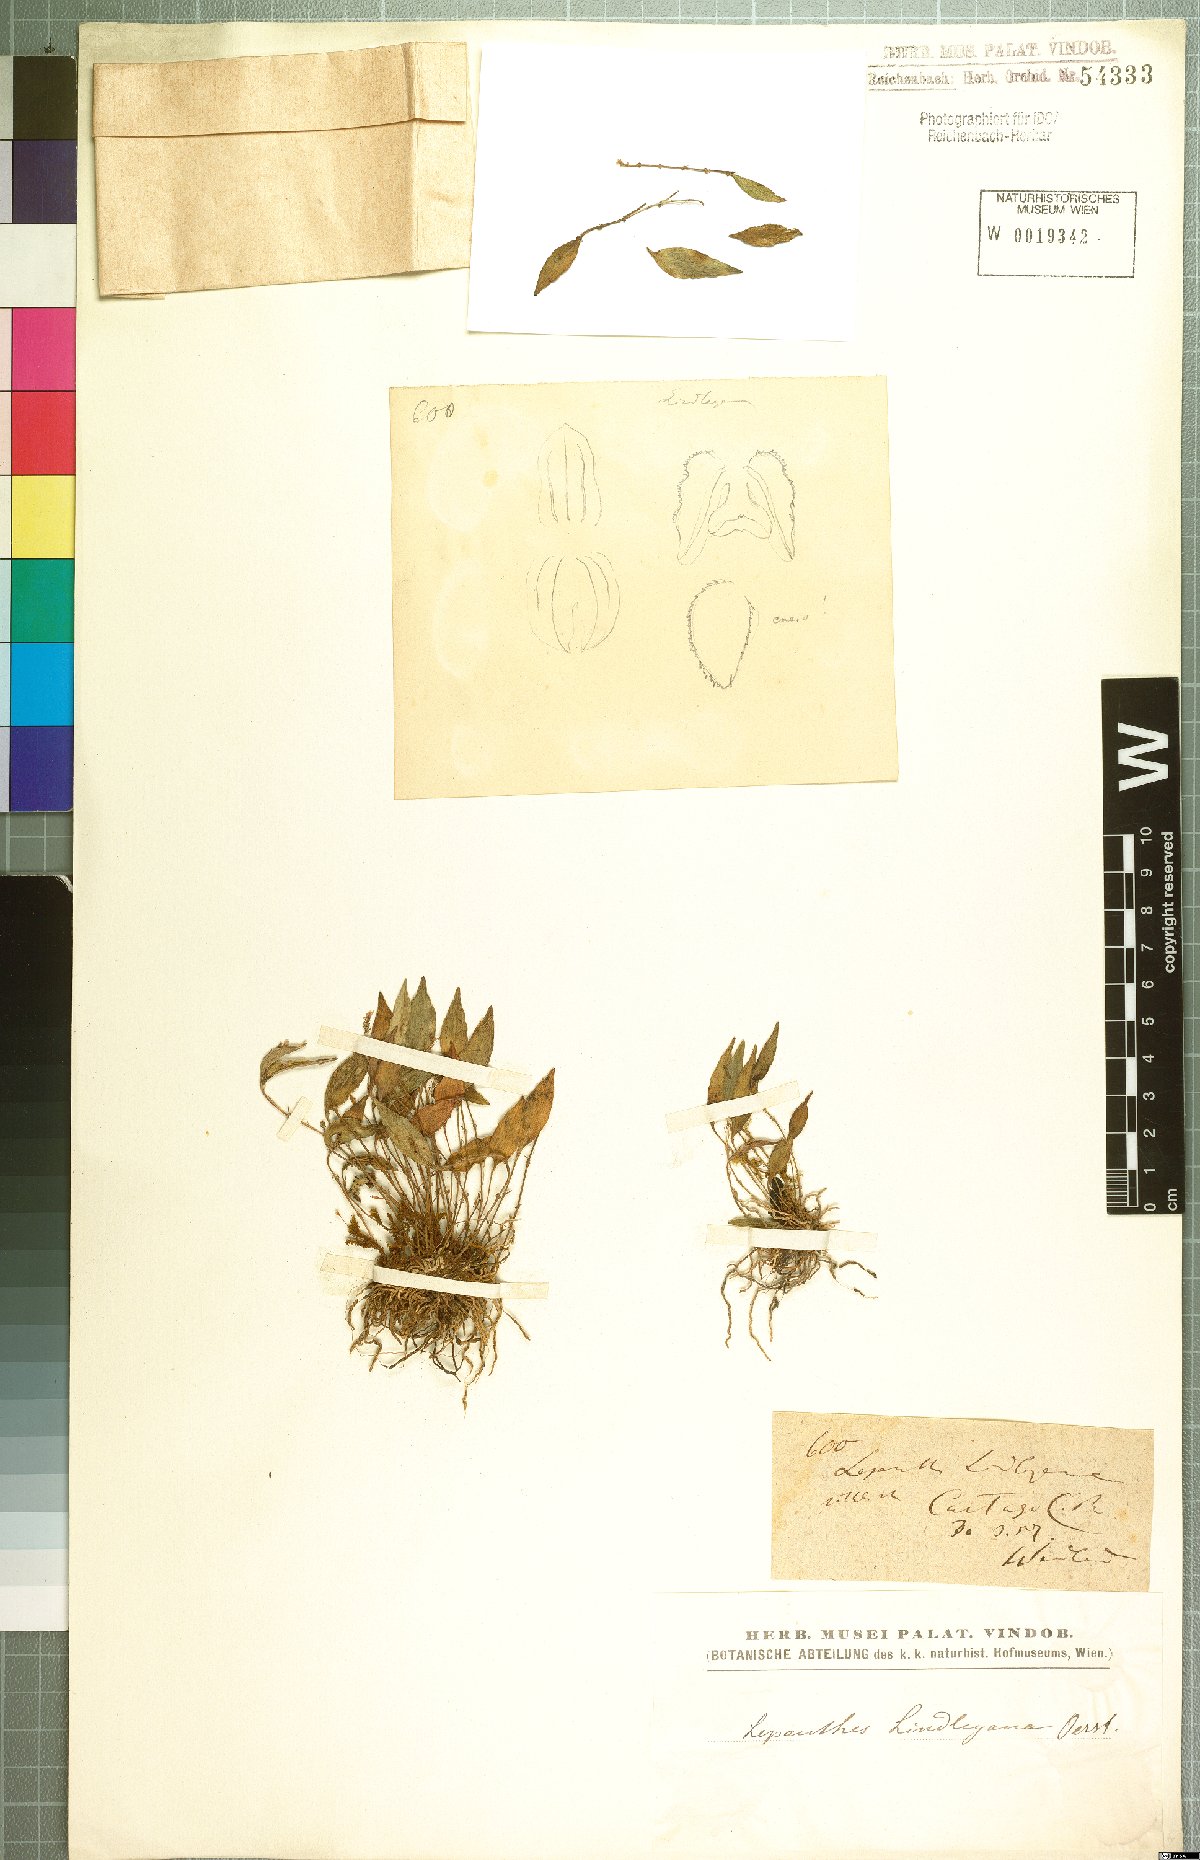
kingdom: Plantae
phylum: Tracheophyta
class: Liliopsida
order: Asparagales
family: Orchidaceae
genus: Lepanthes
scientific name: Lepanthes lindleyana
